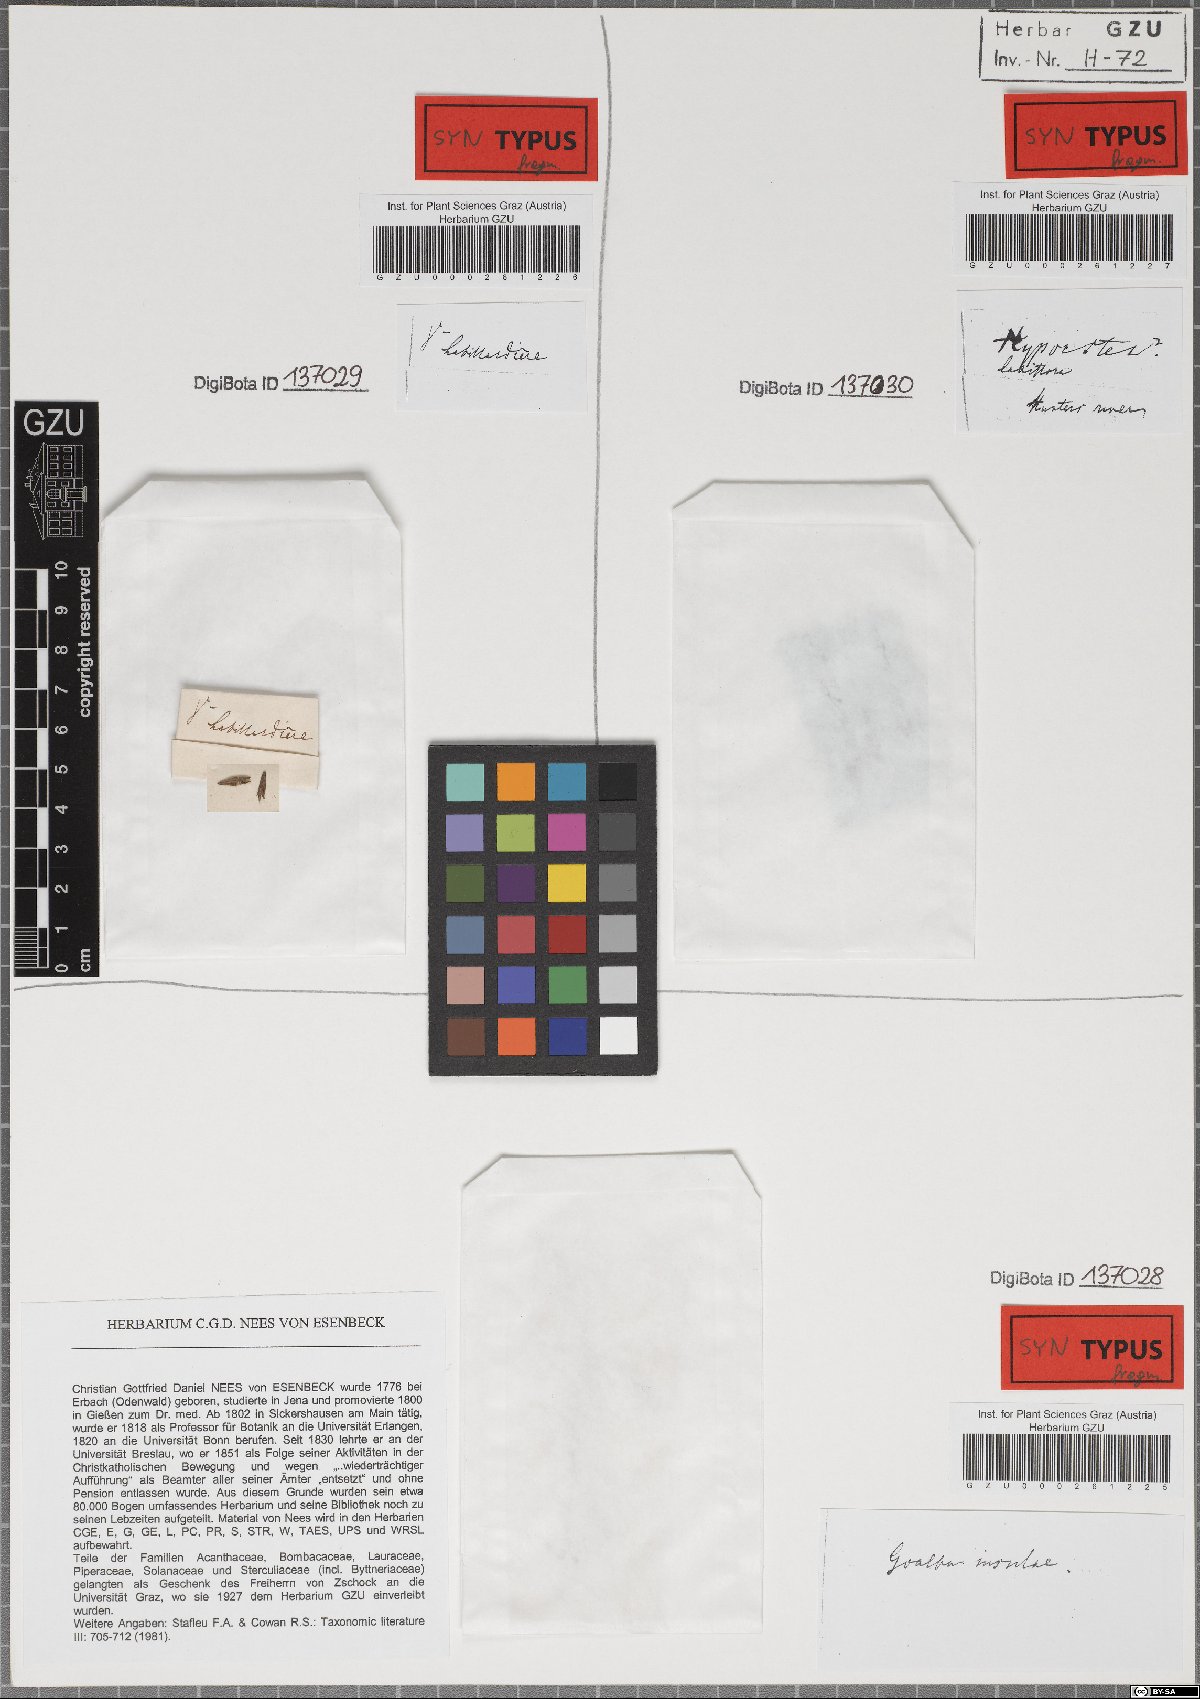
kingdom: Plantae
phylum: Tracheophyta
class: Magnoliopsida
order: Lamiales
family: Acanthaceae
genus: Hypoestes
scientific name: Hypoestes malaccensis
